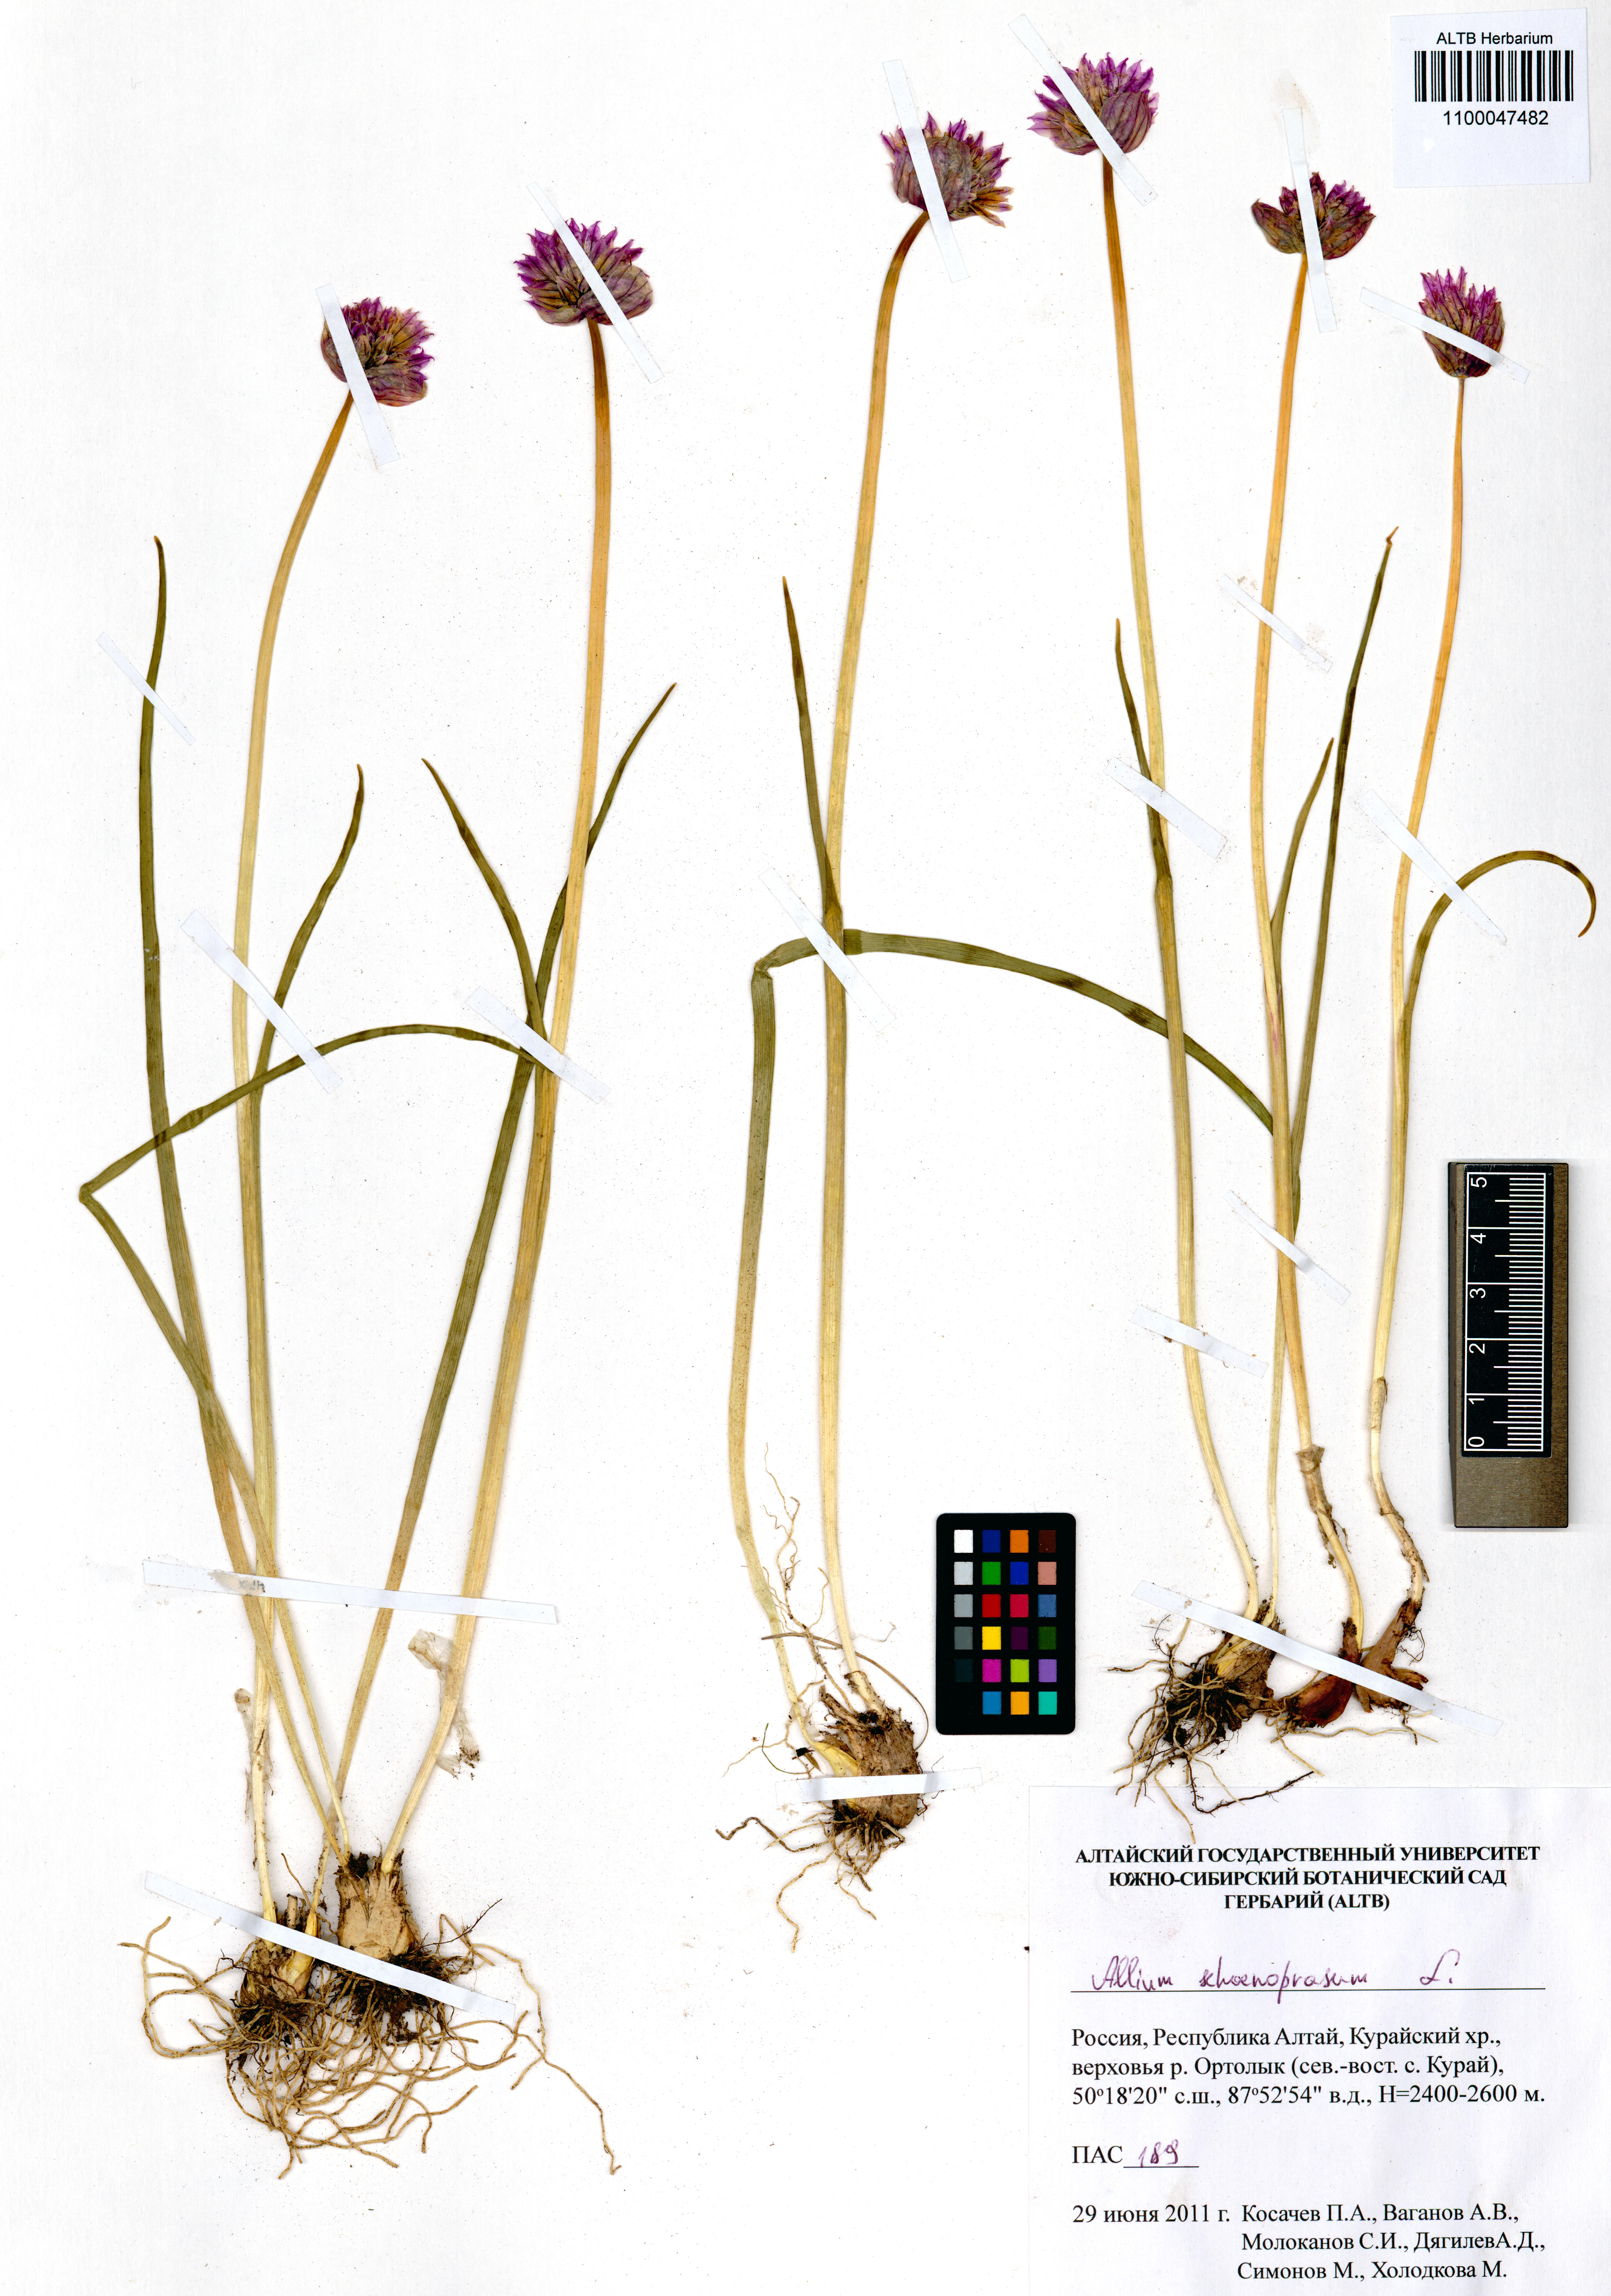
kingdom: Plantae
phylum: Tracheophyta
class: Liliopsida
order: Asparagales
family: Amaryllidaceae
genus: Allium
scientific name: Allium schoenoprasum
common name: Chives
